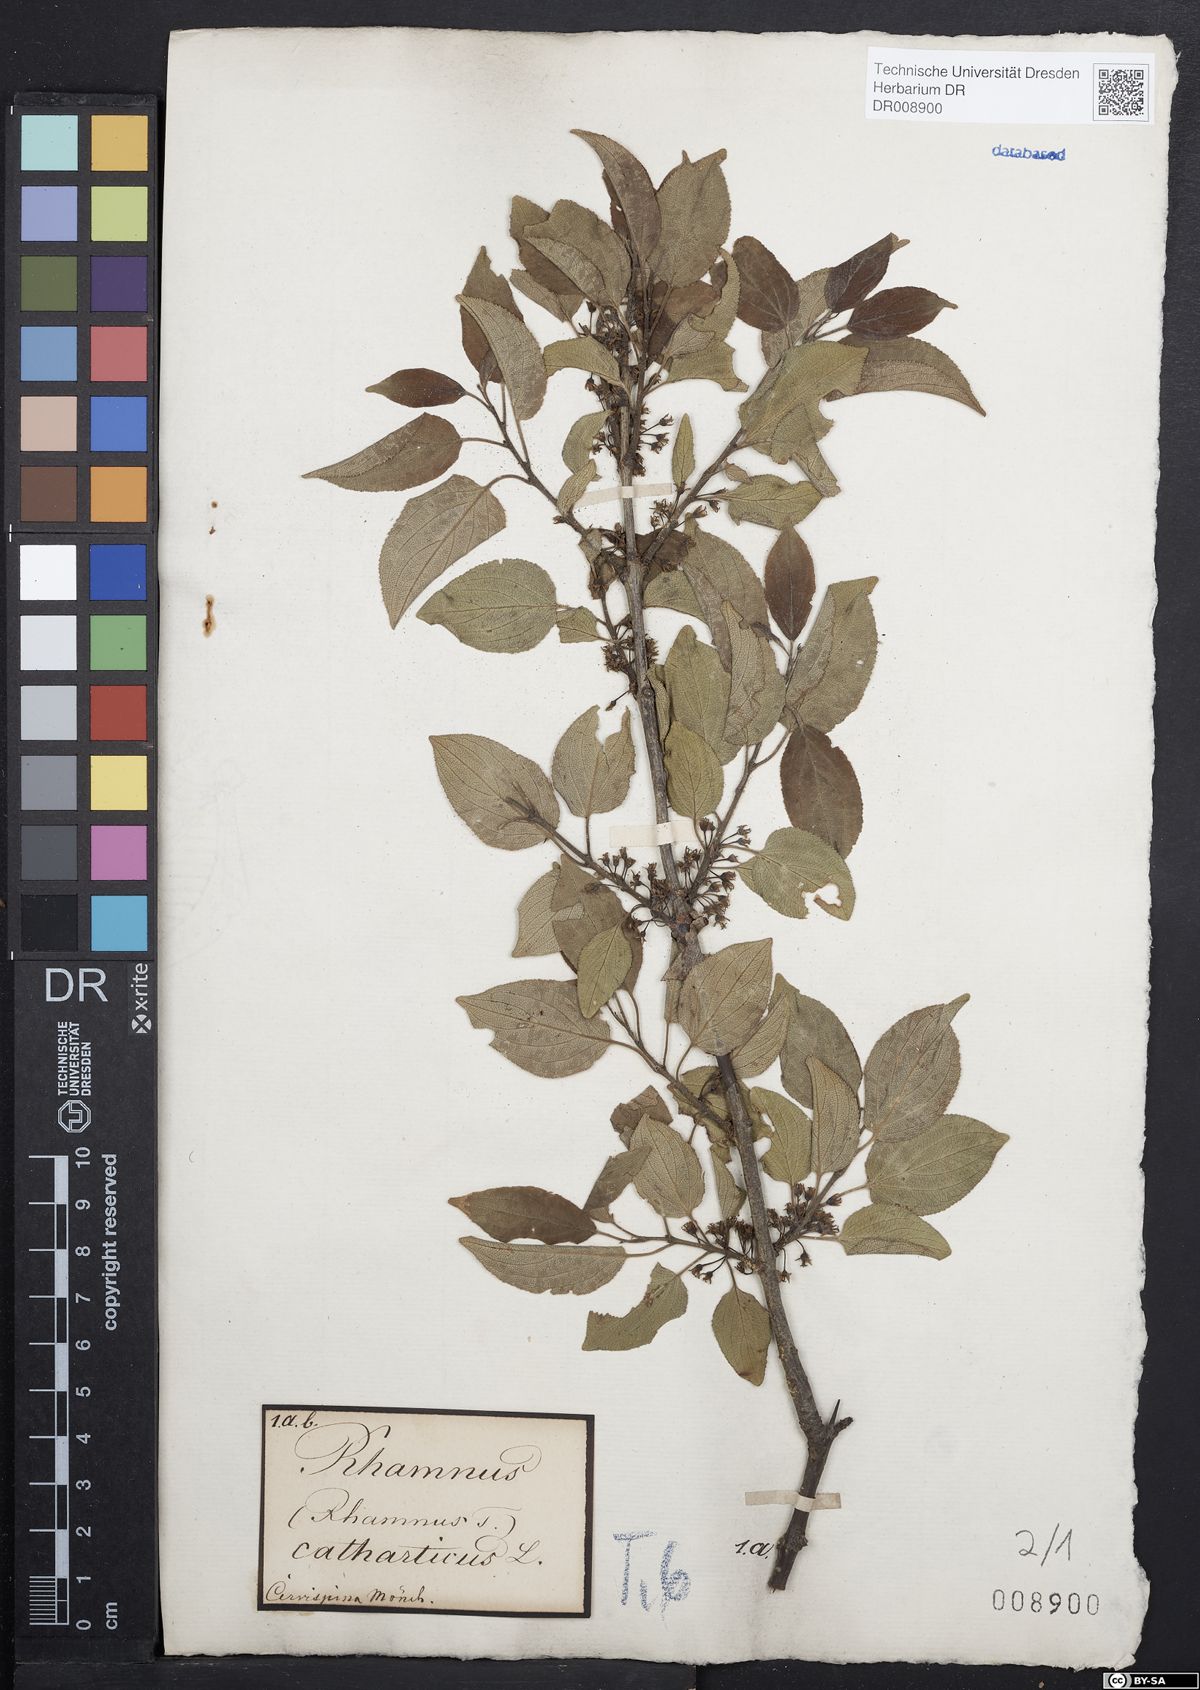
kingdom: Plantae
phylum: Tracheophyta
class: Magnoliopsida
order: Rosales
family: Rhamnaceae
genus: Rhamnus
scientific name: Rhamnus cathartica
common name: Common buckthorn
